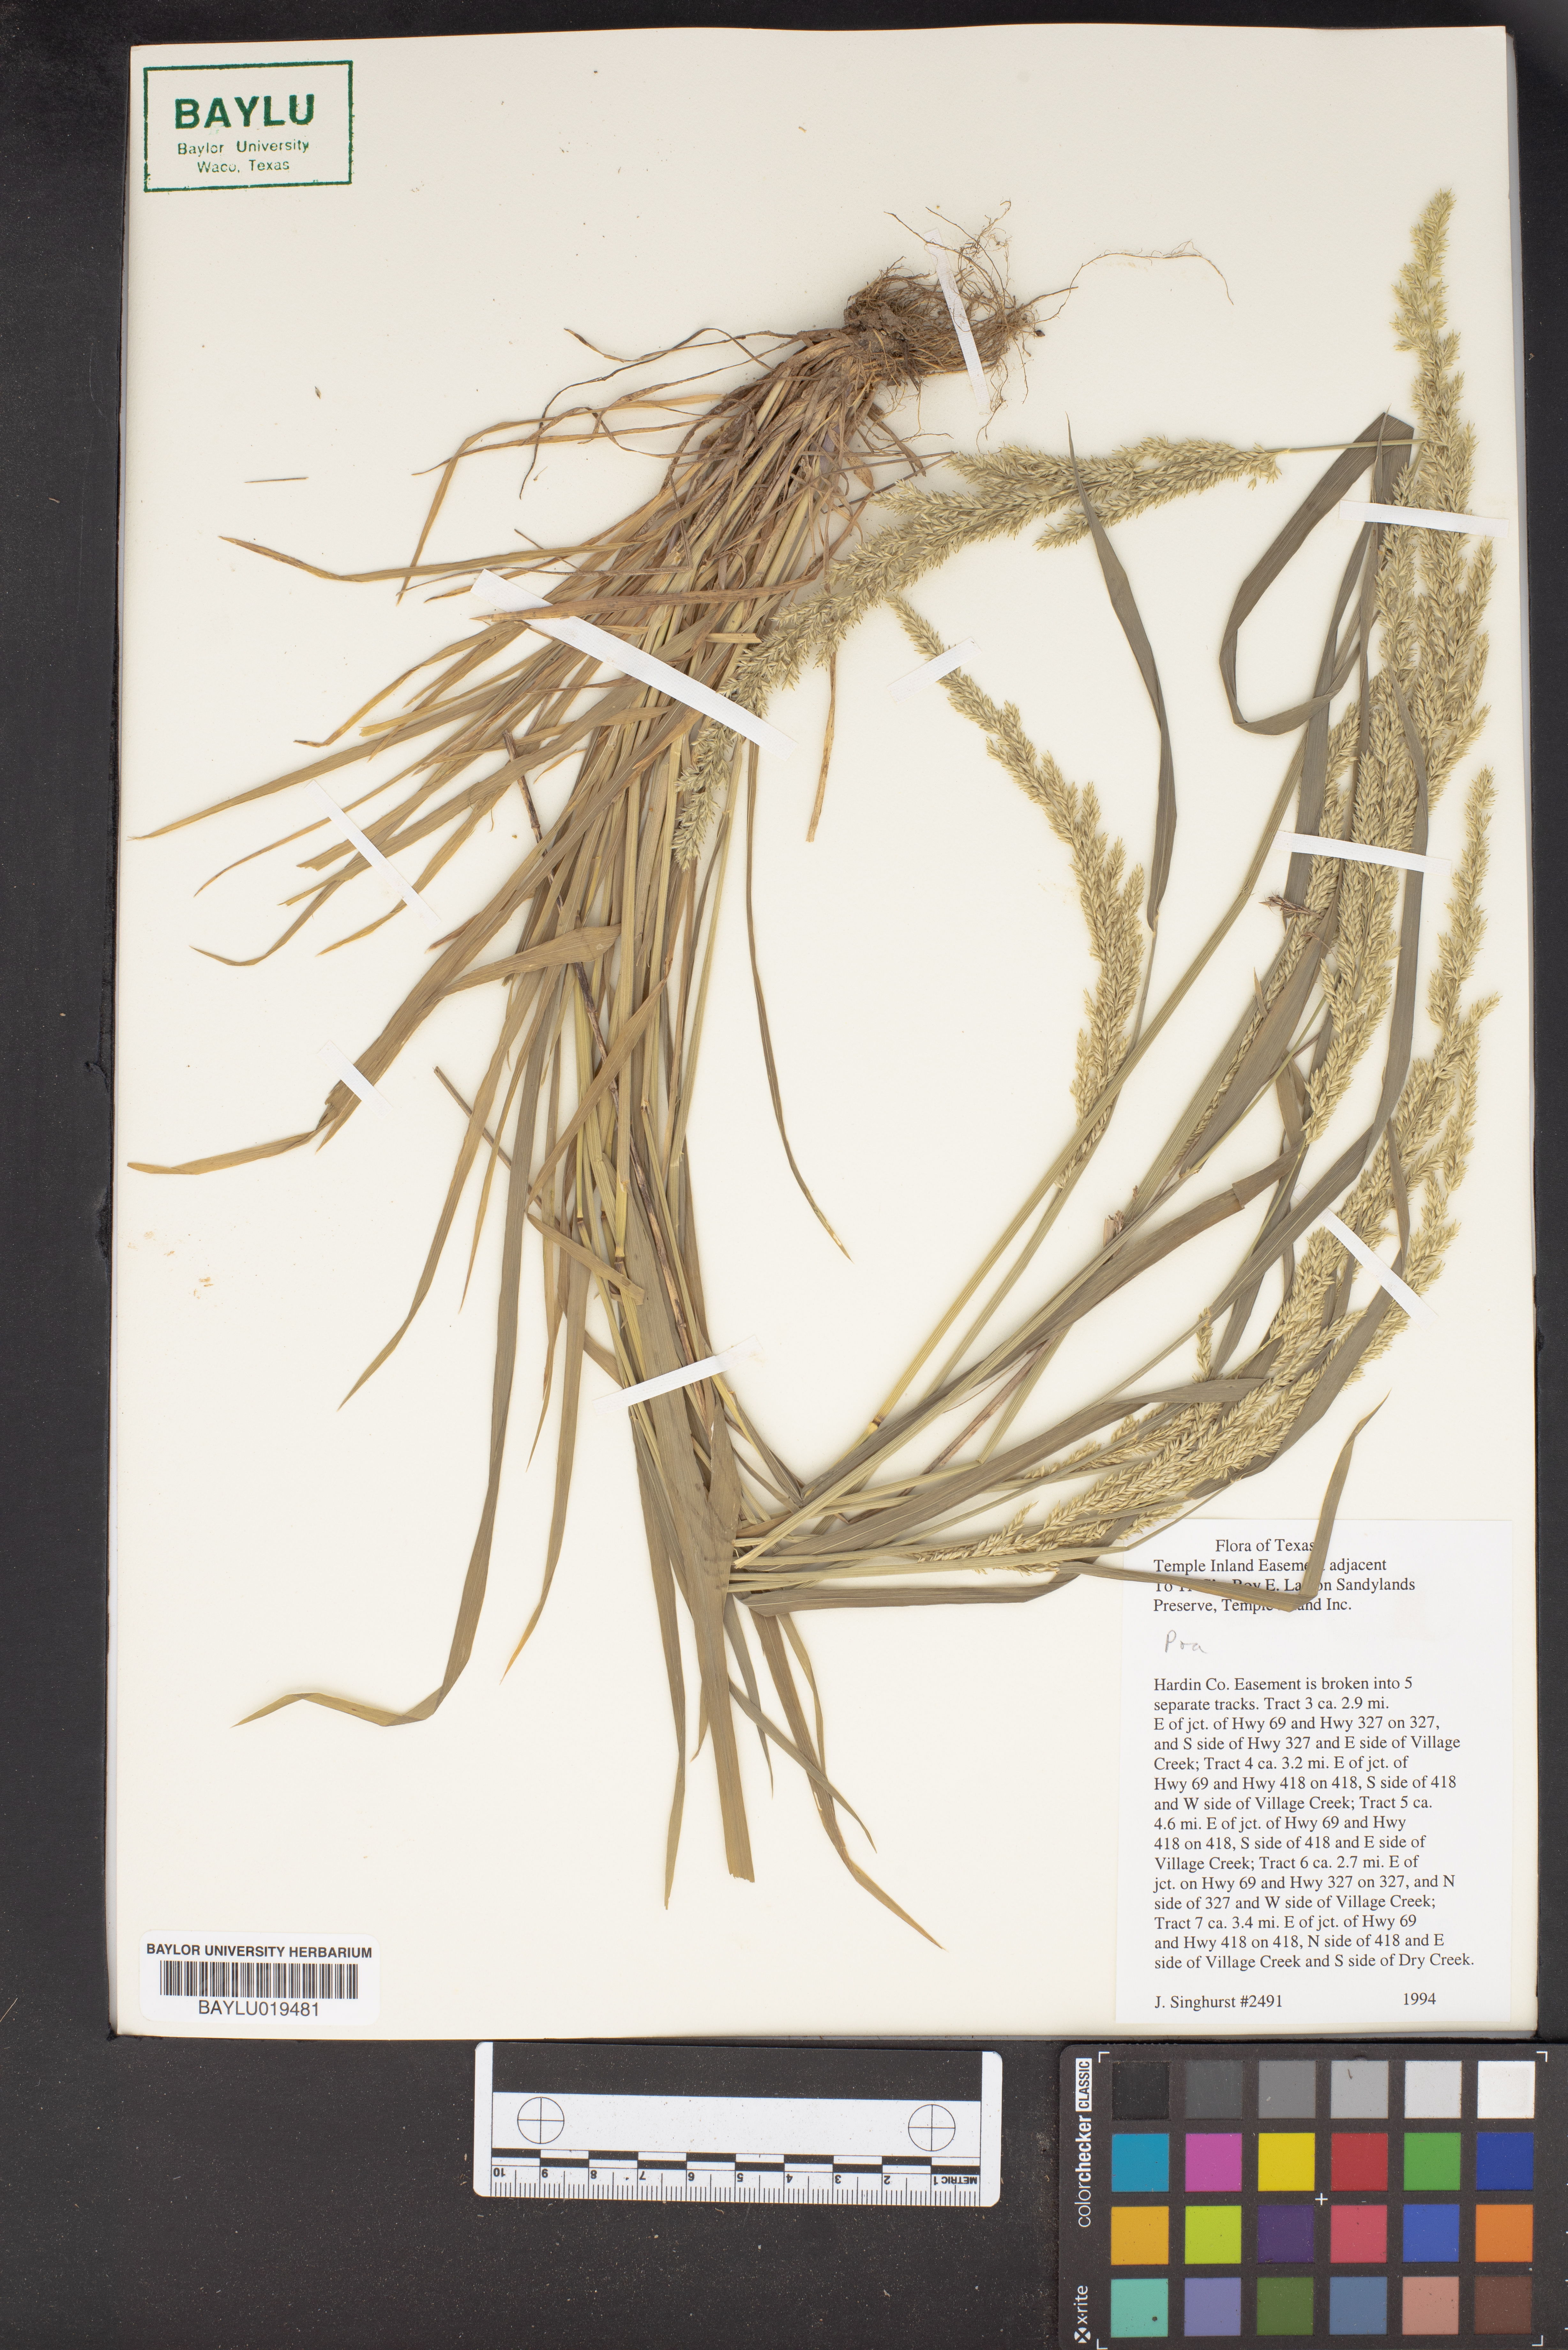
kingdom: Plantae
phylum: Tracheophyta
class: Liliopsida
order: Poales
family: Poaceae
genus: Poa
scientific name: Poa
